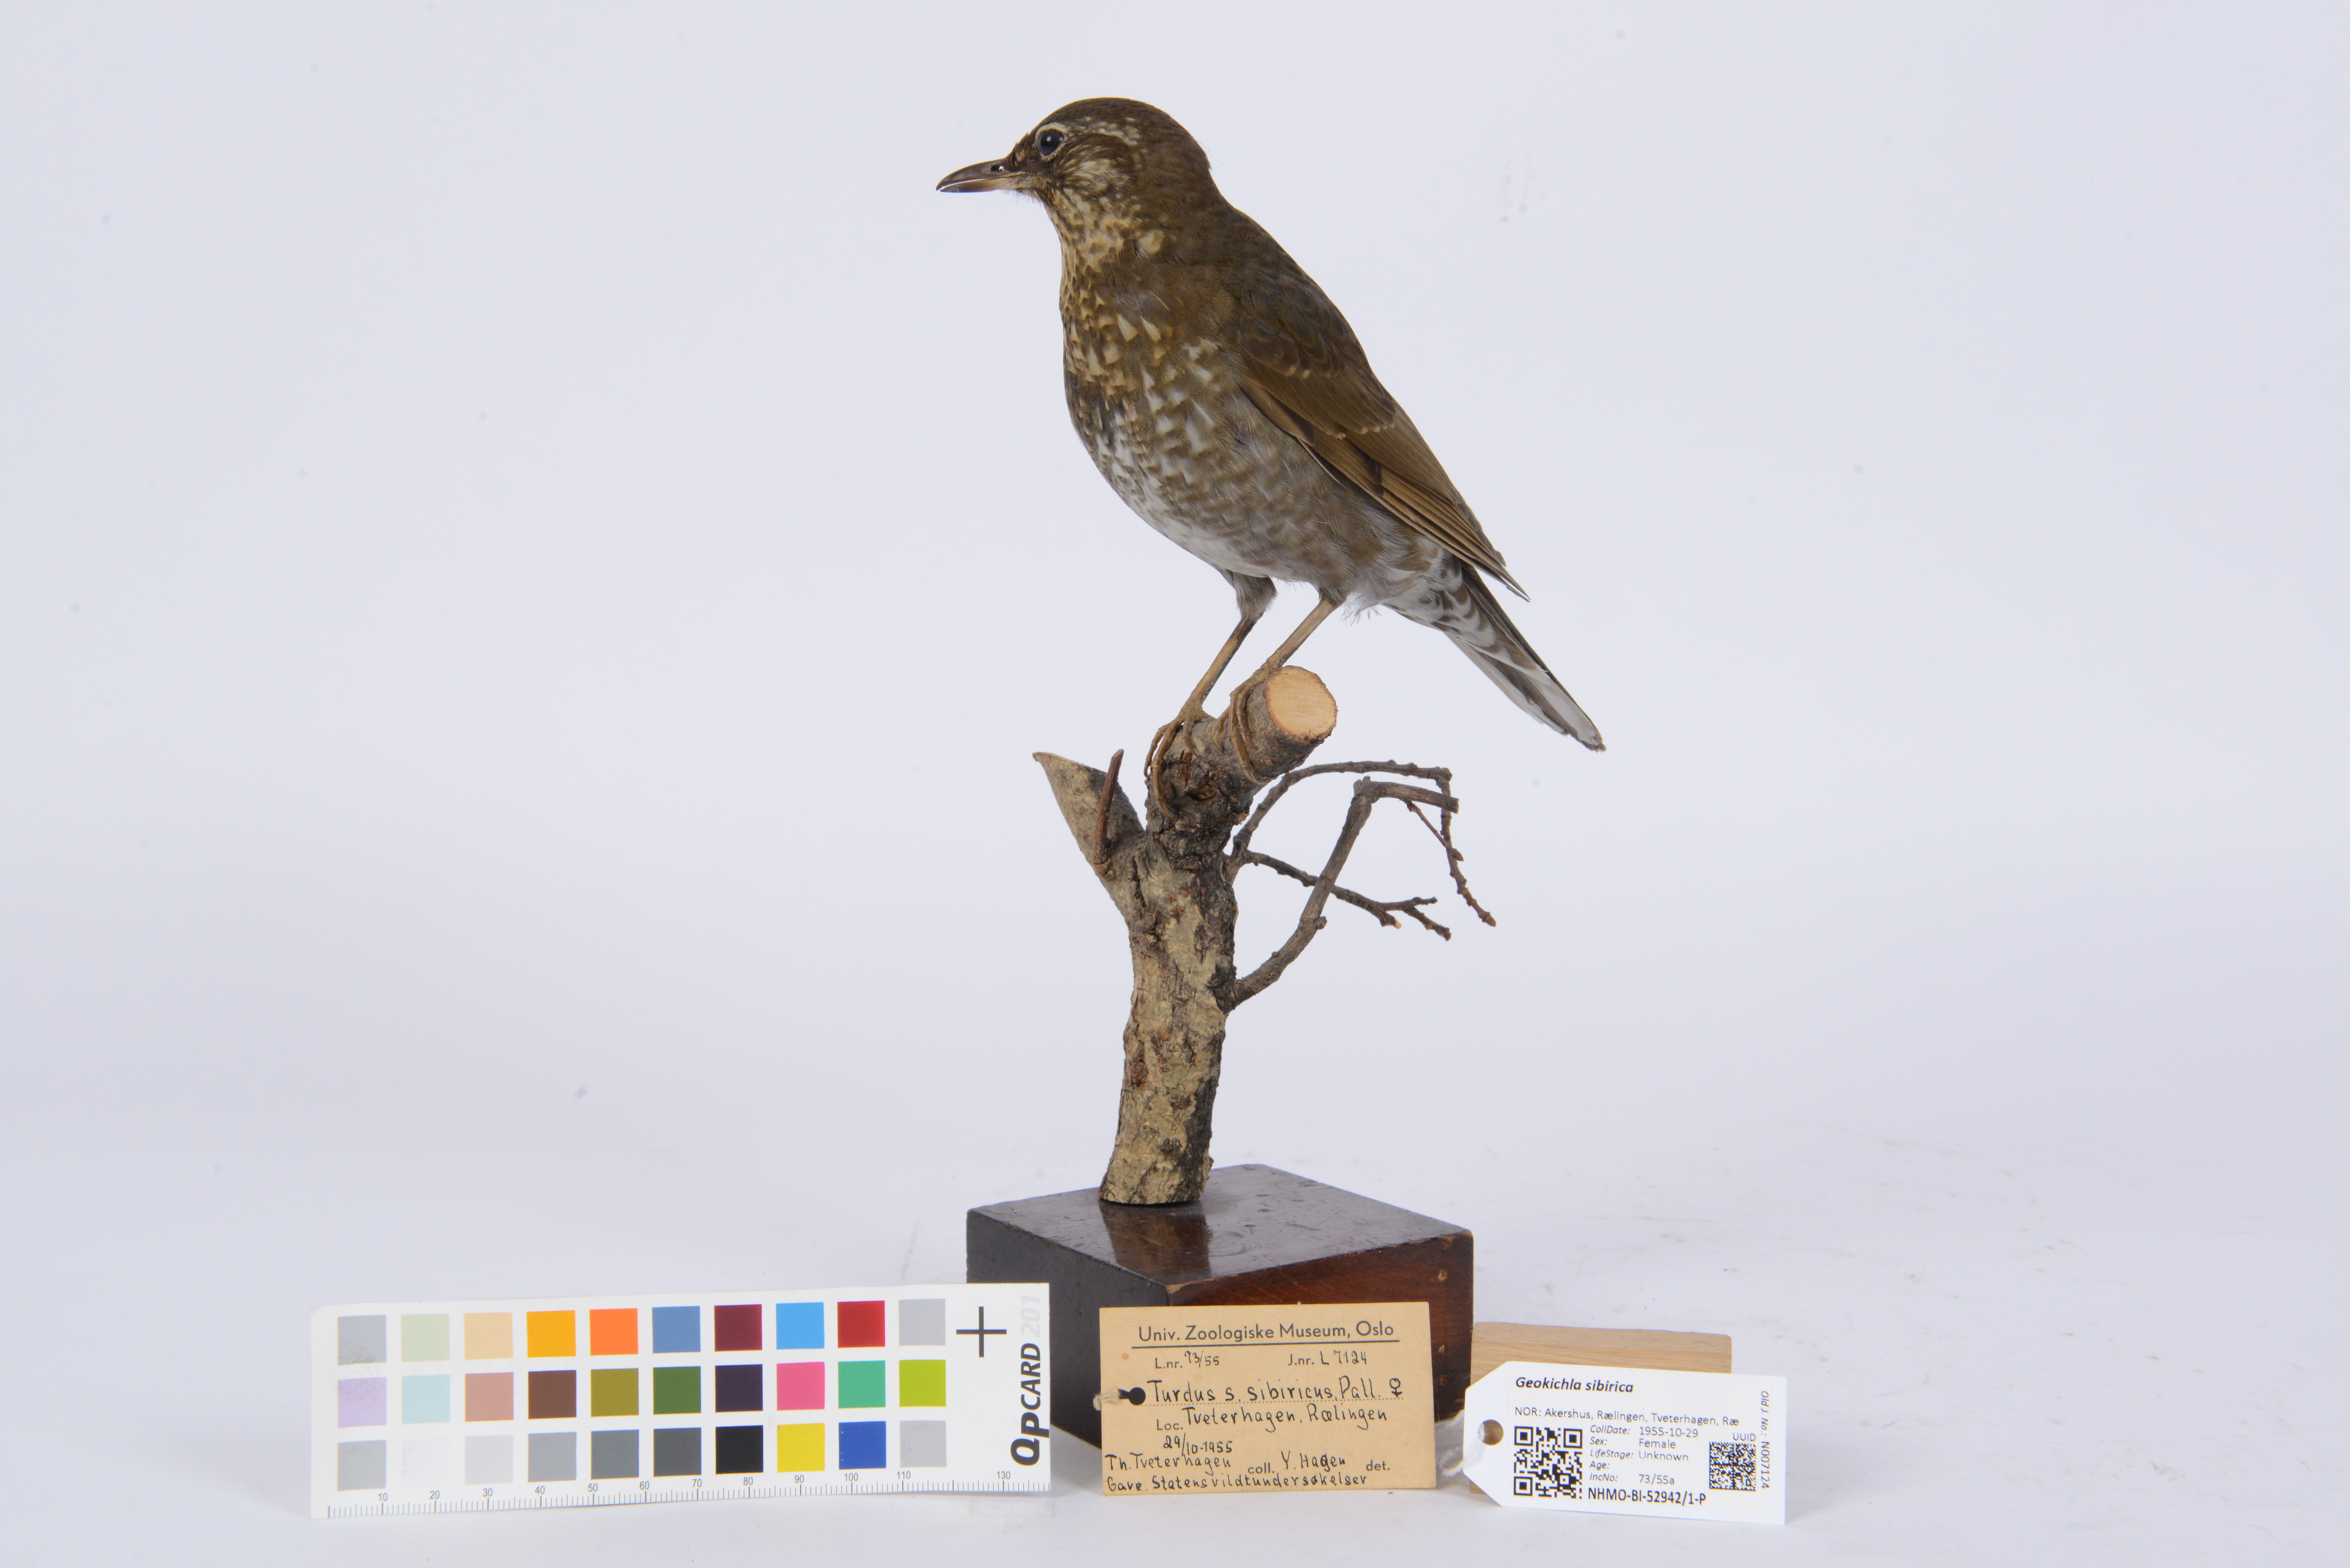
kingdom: Animalia
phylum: Chordata
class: Aves
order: Passeriformes
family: Turdidae
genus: Geokichla
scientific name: Geokichla sibirica
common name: Siberian thrush
